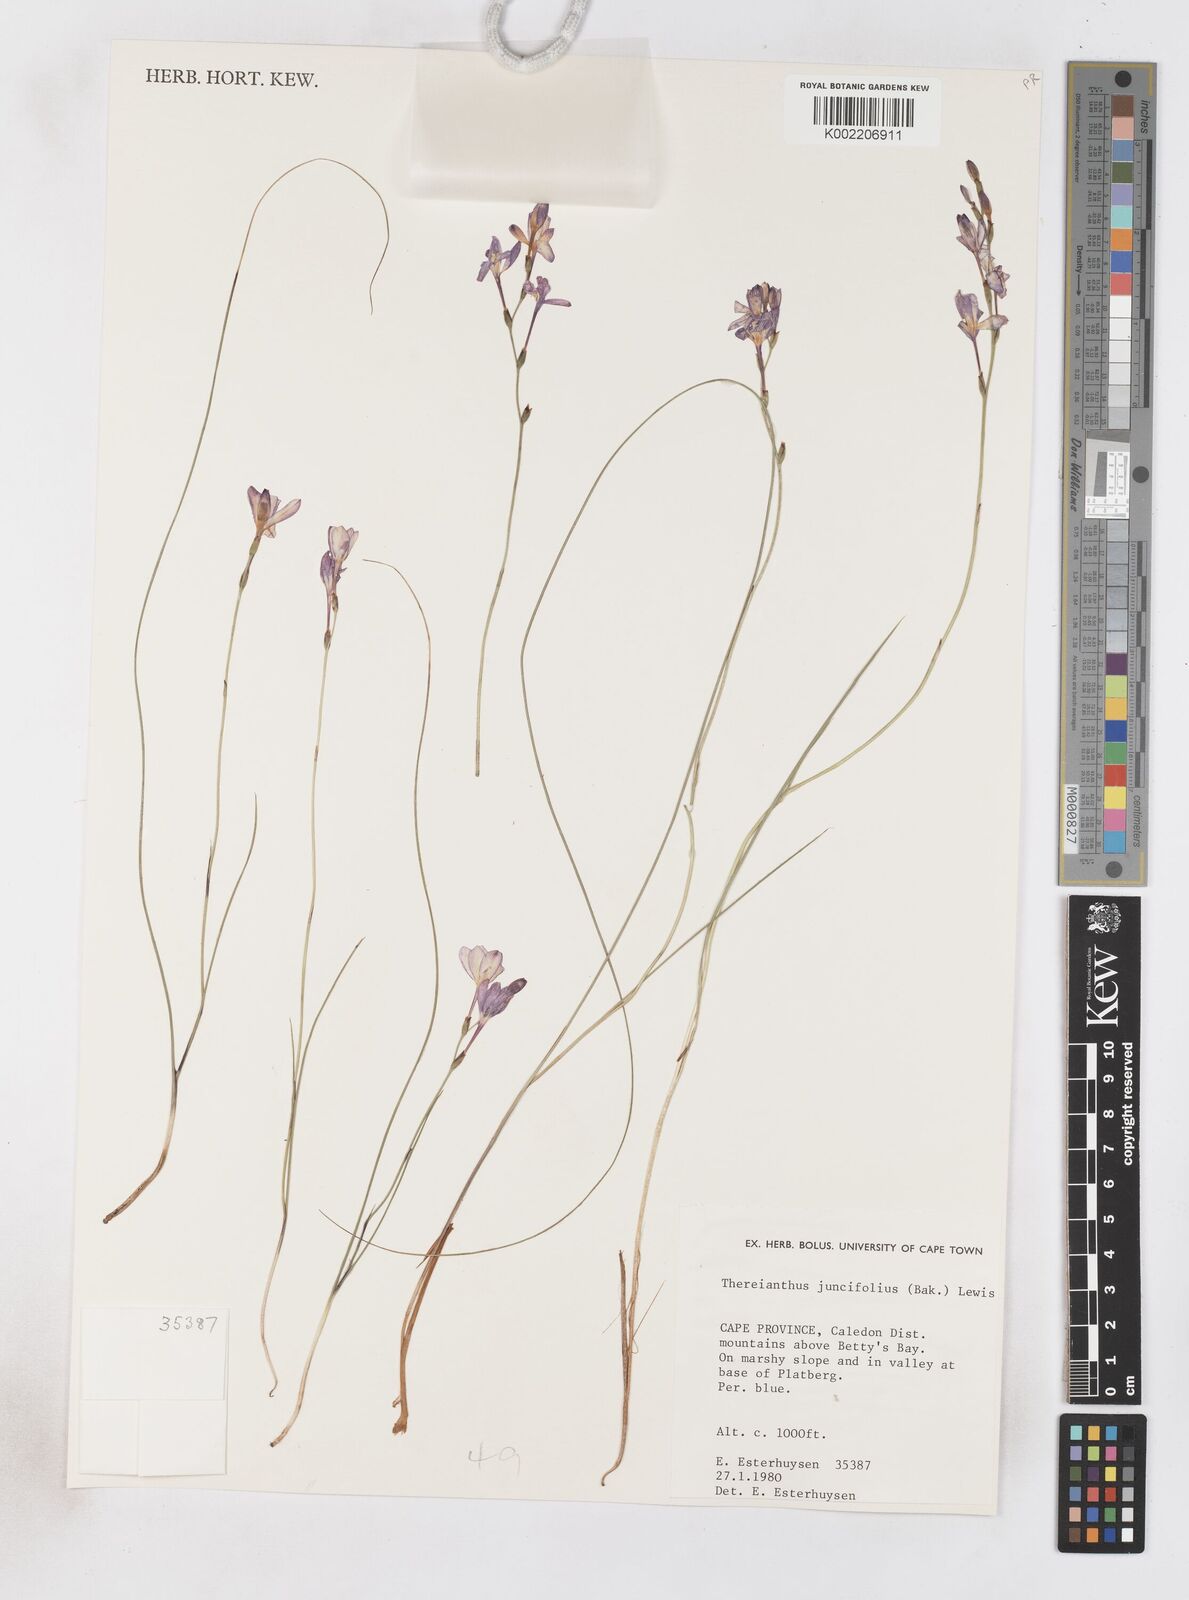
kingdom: Plantae
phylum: Tracheophyta
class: Liliopsida
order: Asparagales
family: Iridaceae
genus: Micranthus
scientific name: Micranthus plantagineus
